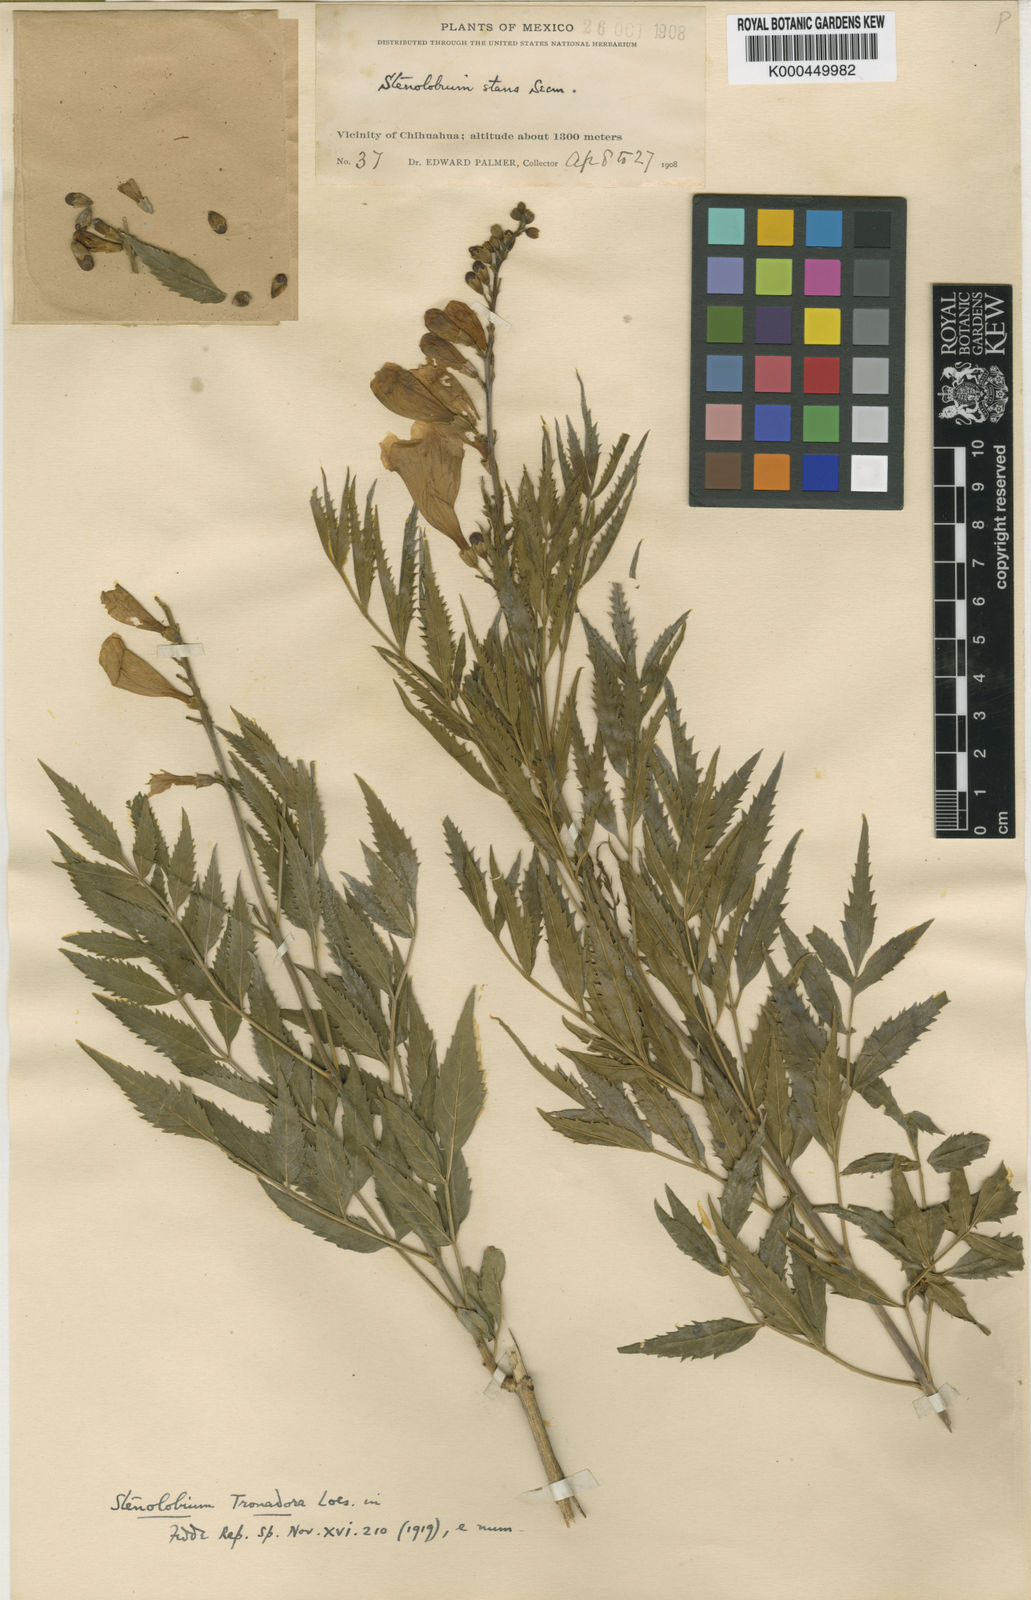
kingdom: Plantae
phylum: Tracheophyta
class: Magnoliopsida
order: Lamiales
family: Bignoniaceae
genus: Tecoma
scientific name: Tecoma stans
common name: Yellow trumpetbush
